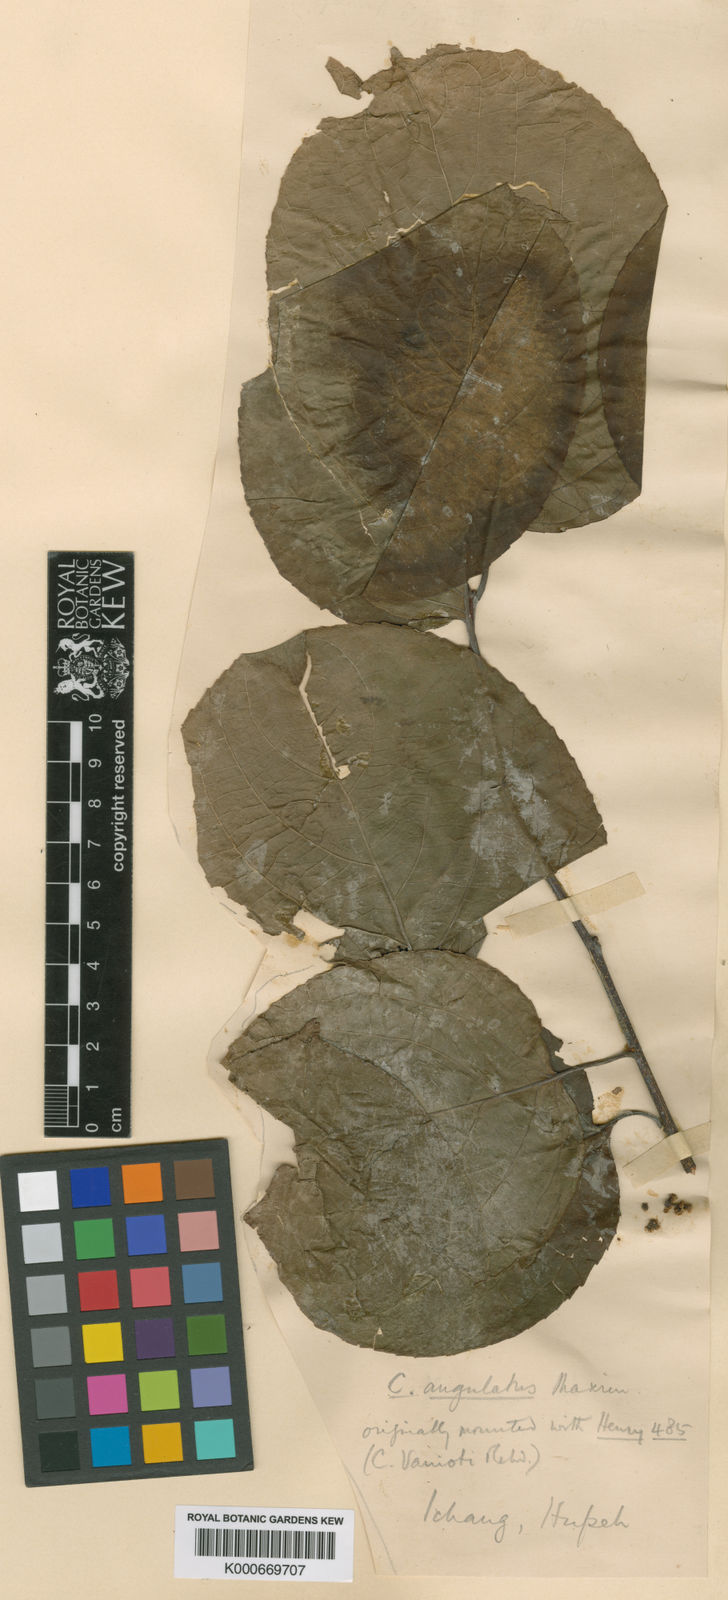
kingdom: Plantae
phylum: Tracheophyta
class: Magnoliopsida
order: Celastrales
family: Celastraceae
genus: Celastrus
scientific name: Celastrus angulatus
